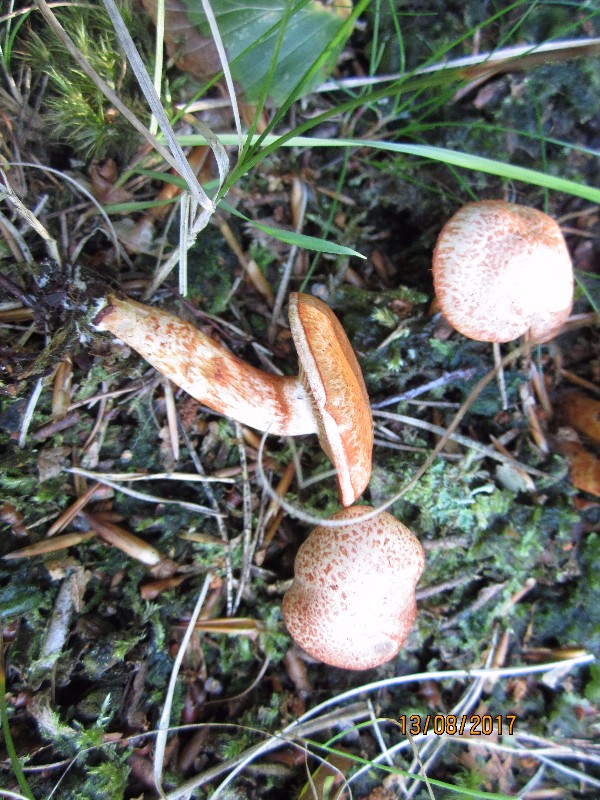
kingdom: Fungi
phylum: Basidiomycota
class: Agaricomycetes
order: Agaricales
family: Cortinariaceae
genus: Cortinarius
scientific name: Cortinarius bolaris
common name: cinnoberskællet slørhat
